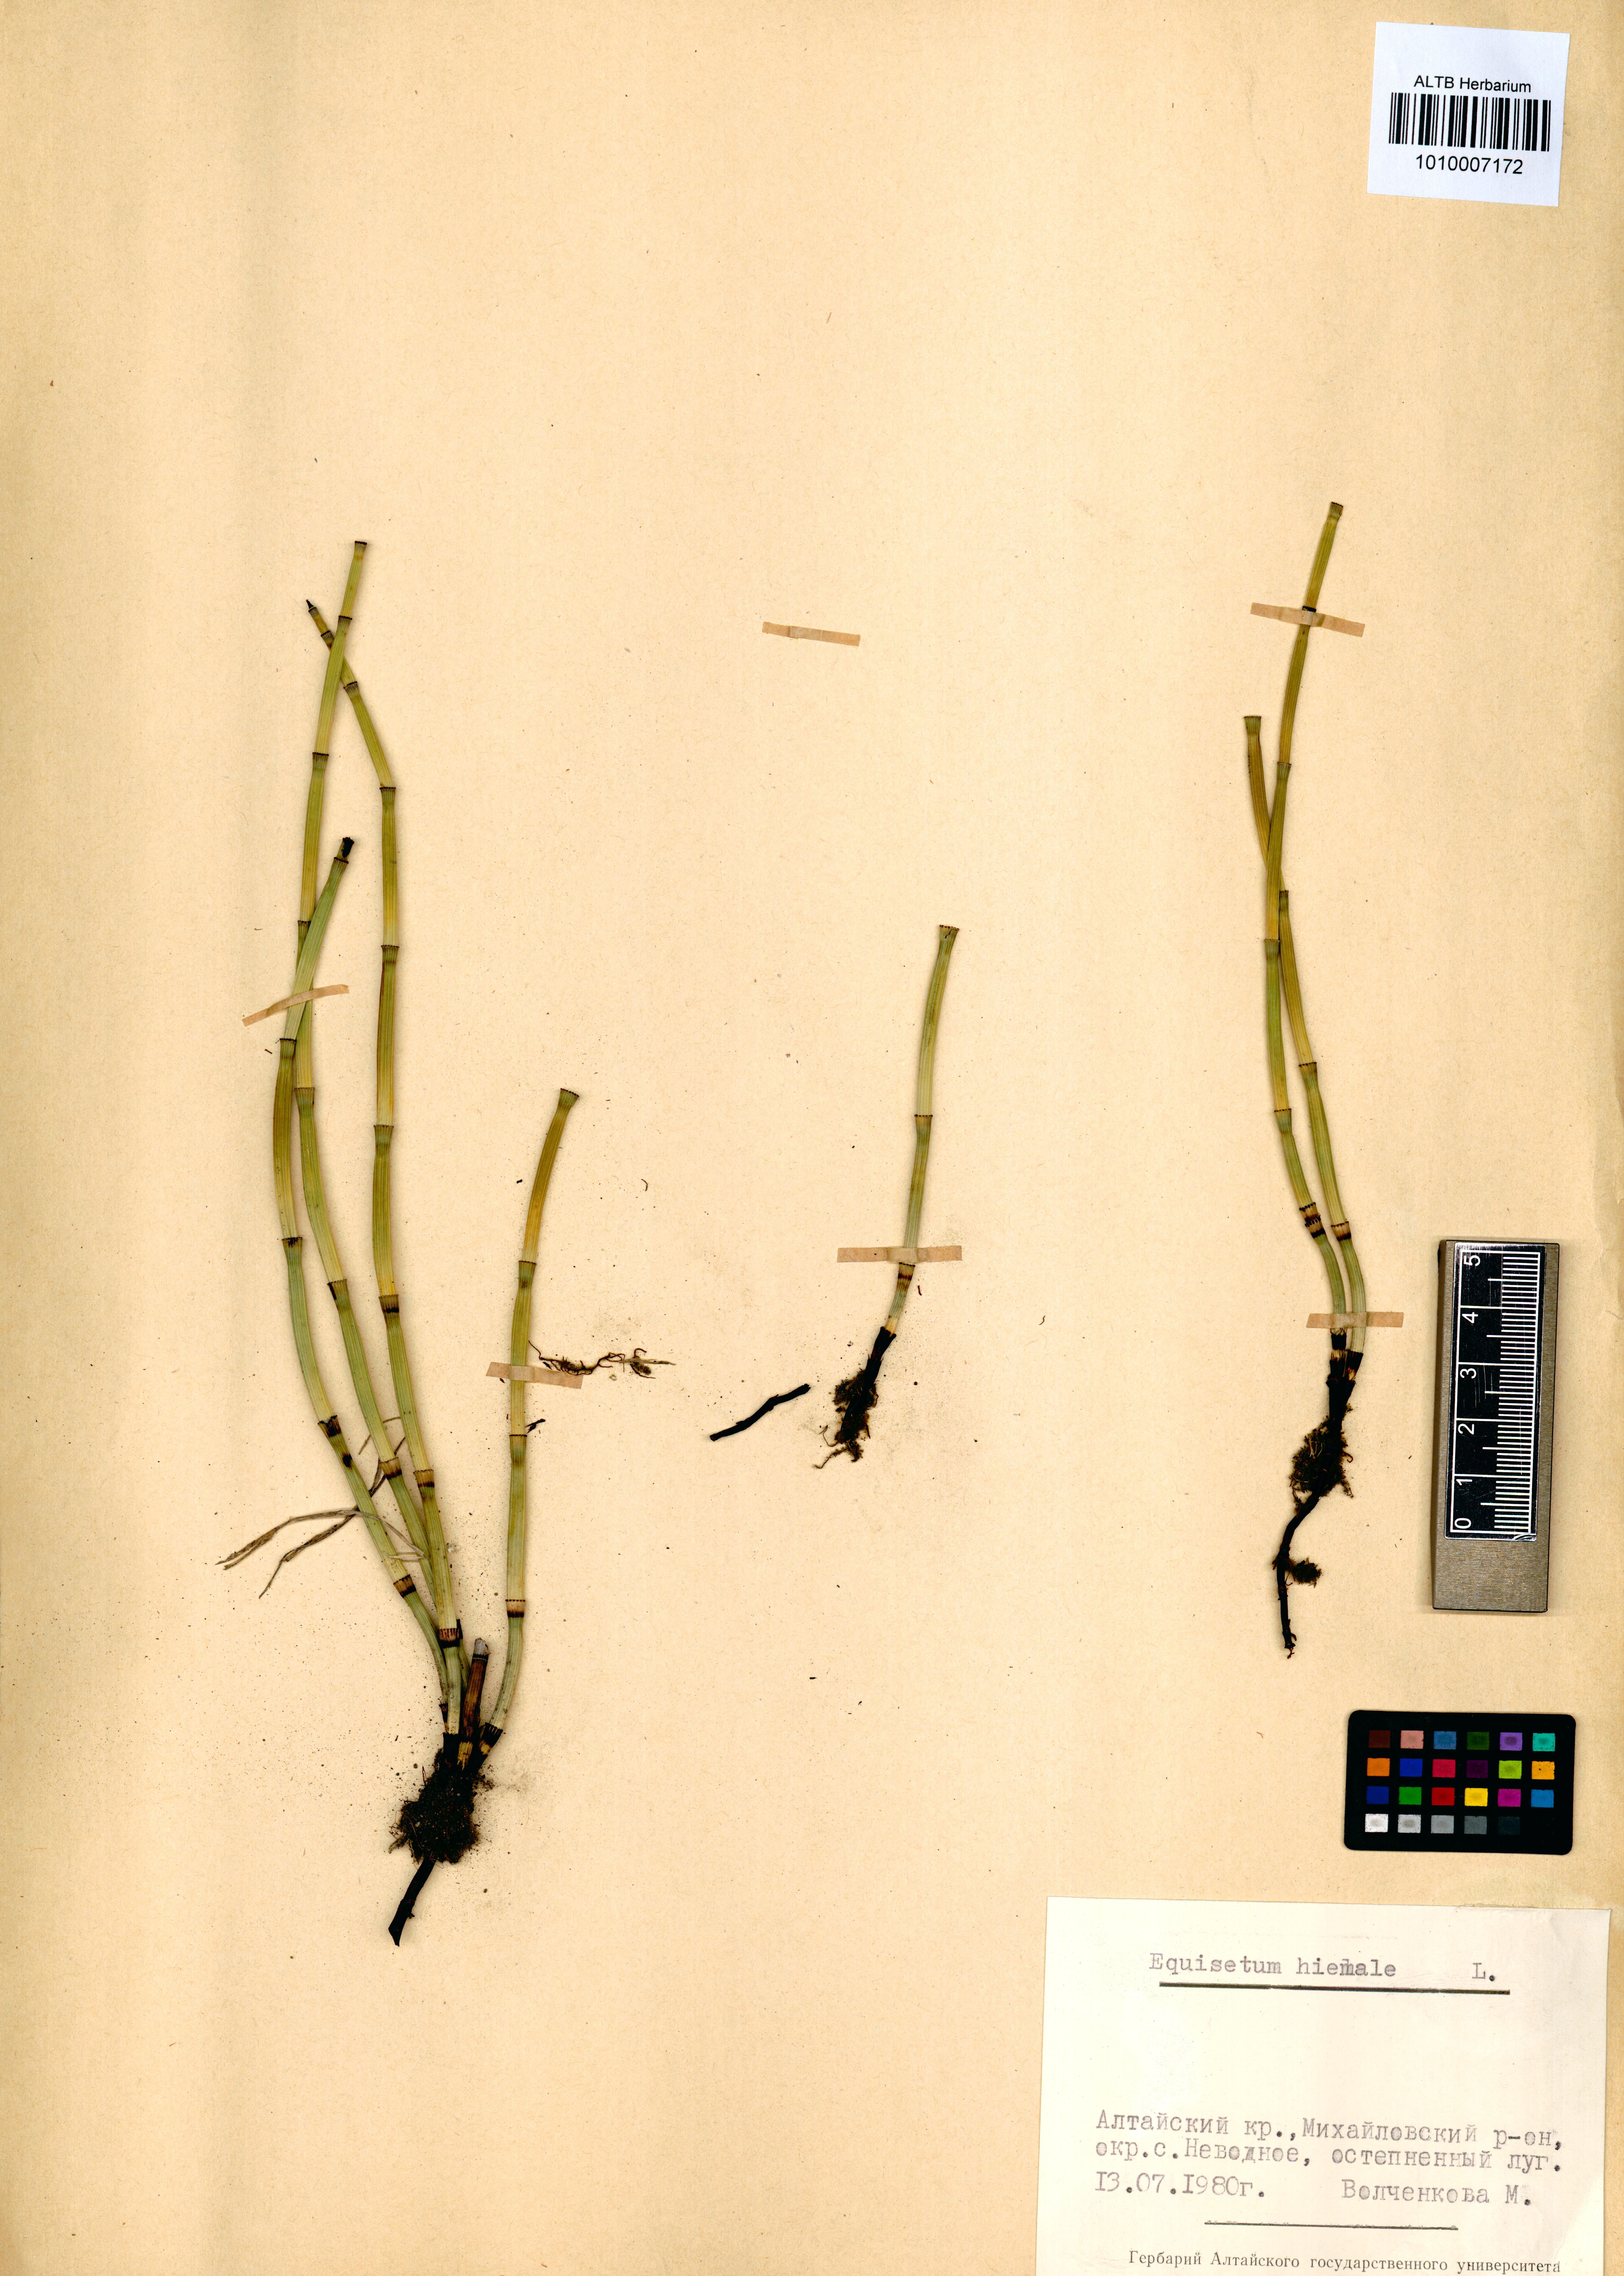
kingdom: Plantae
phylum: Tracheophyta
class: Polypodiopsida
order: Equisetales
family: Equisetaceae
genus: Equisetum
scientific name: Equisetum hyemale
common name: Rough horsetail
